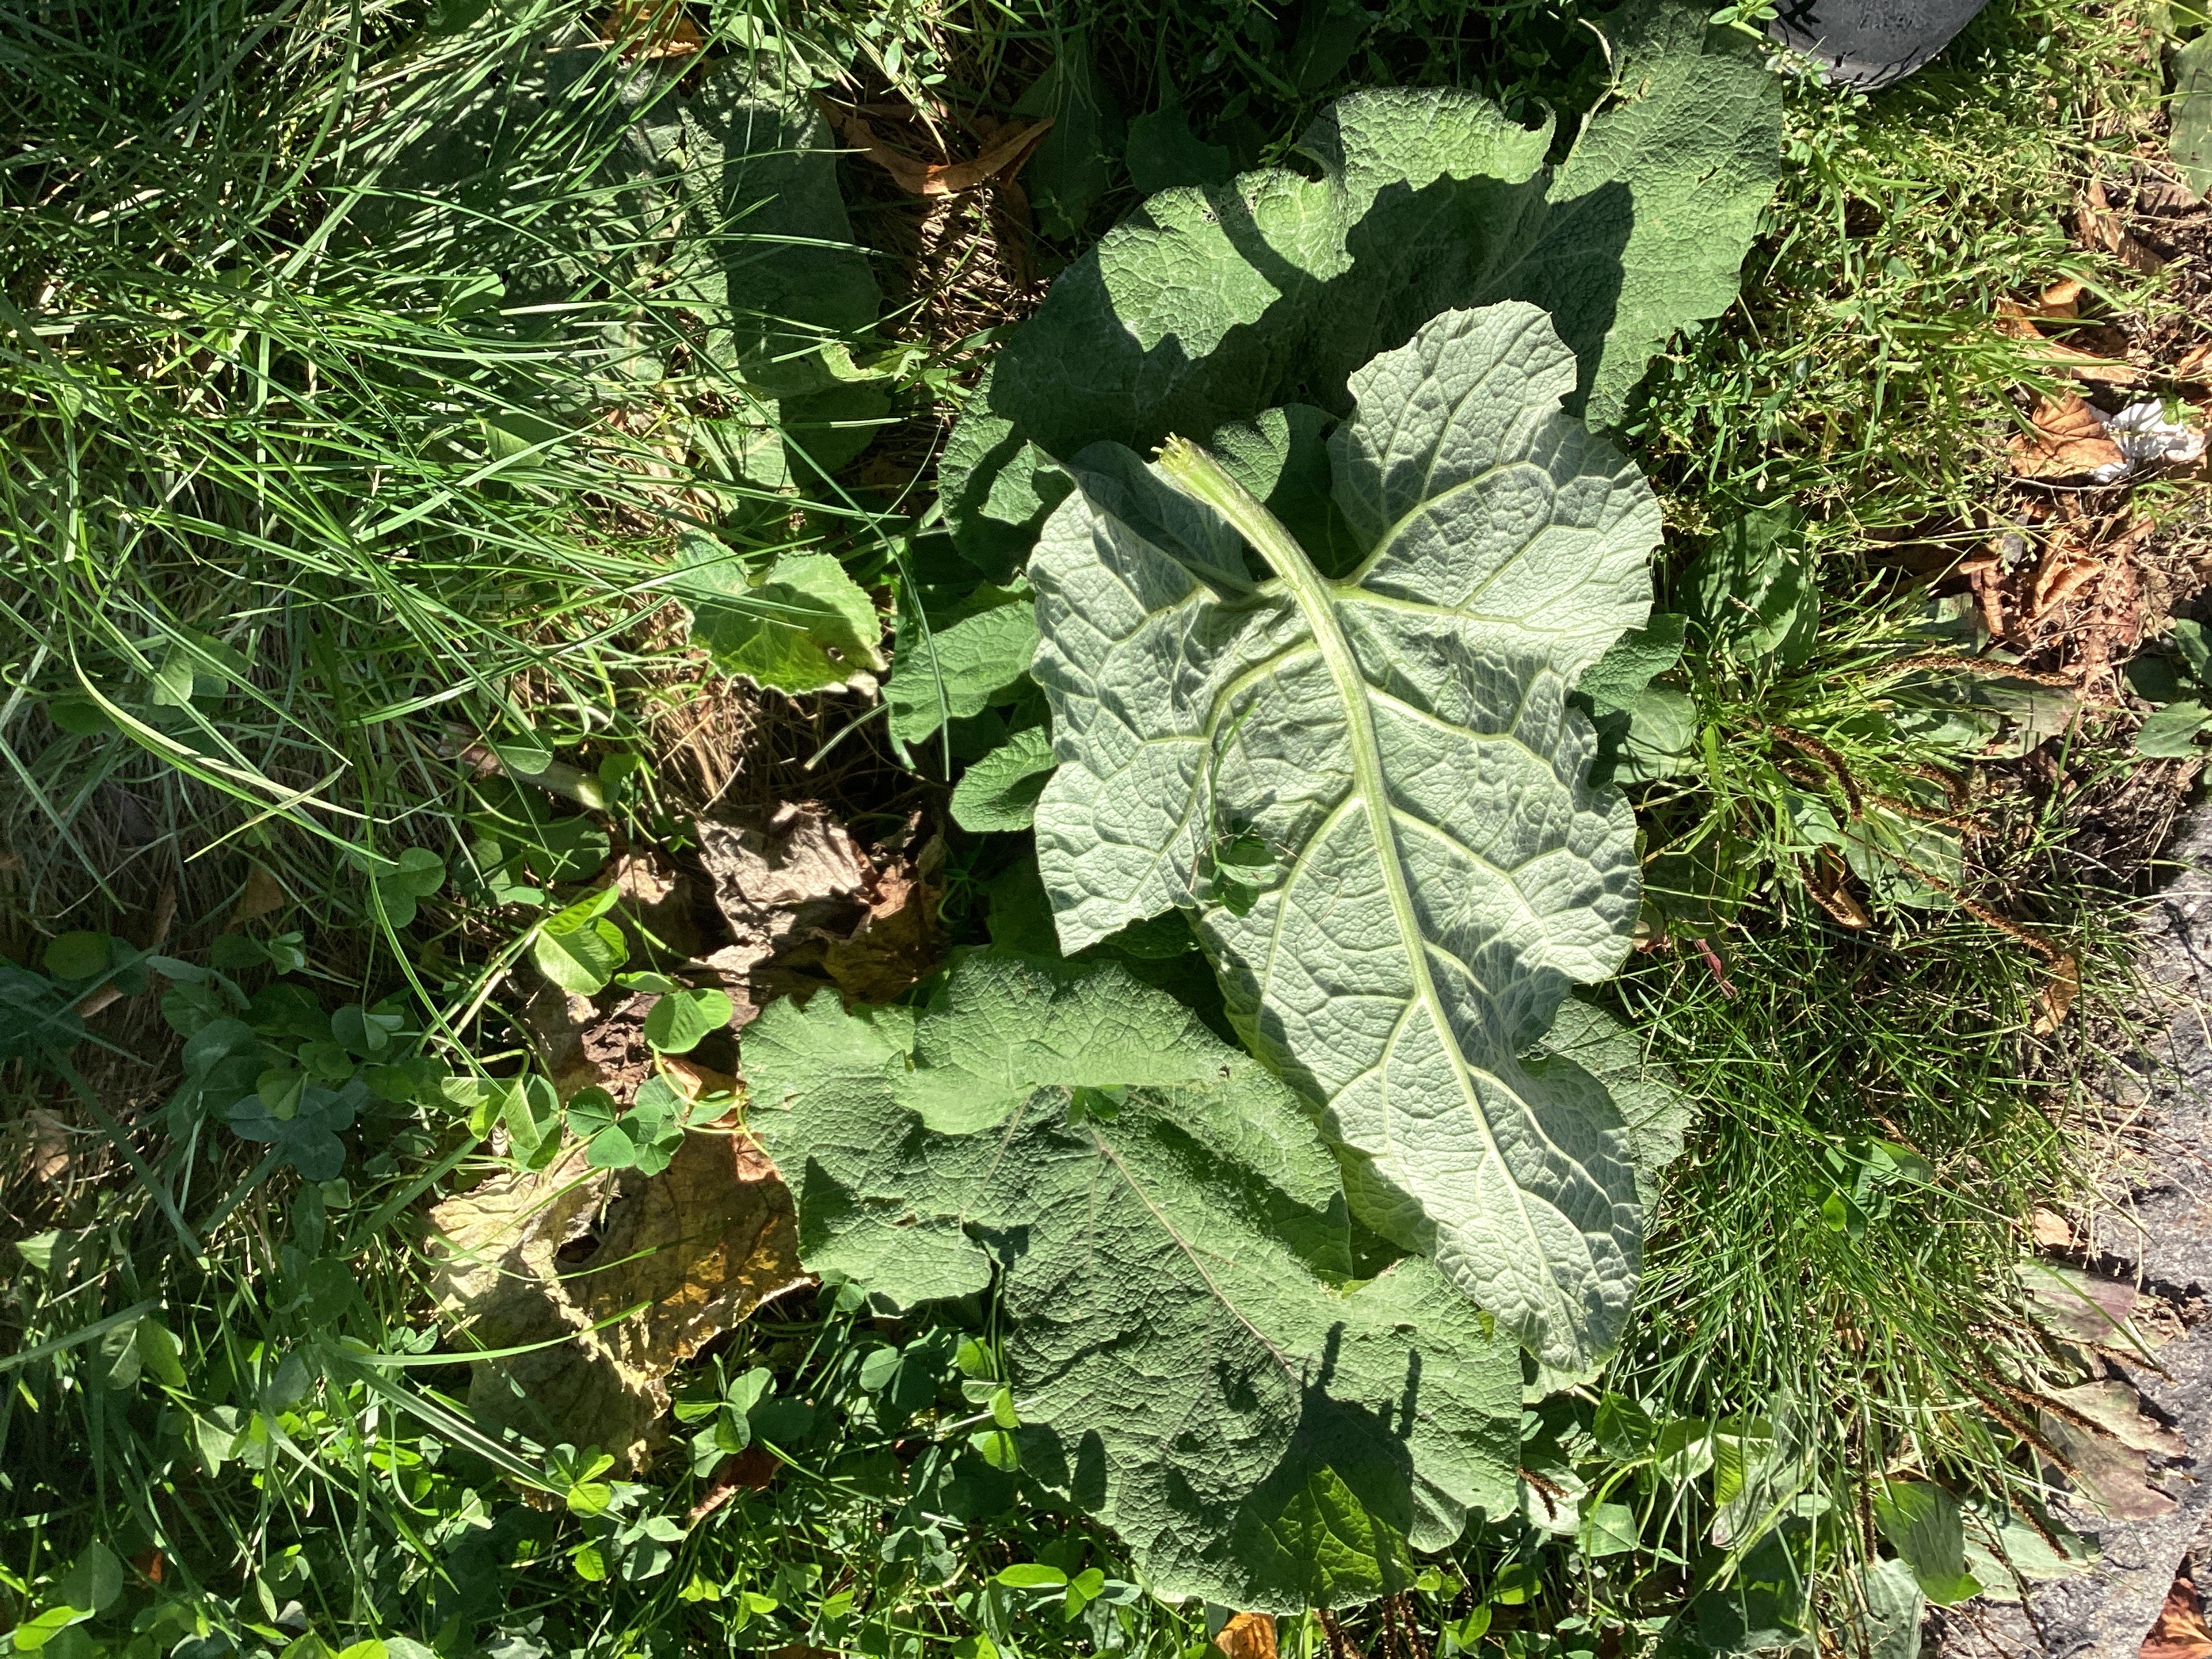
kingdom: Plantae
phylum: Tracheophyta
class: Magnoliopsida
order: Asterales
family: Asteraceae
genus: Arctium
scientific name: Arctium tomentosum
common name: ullborre
